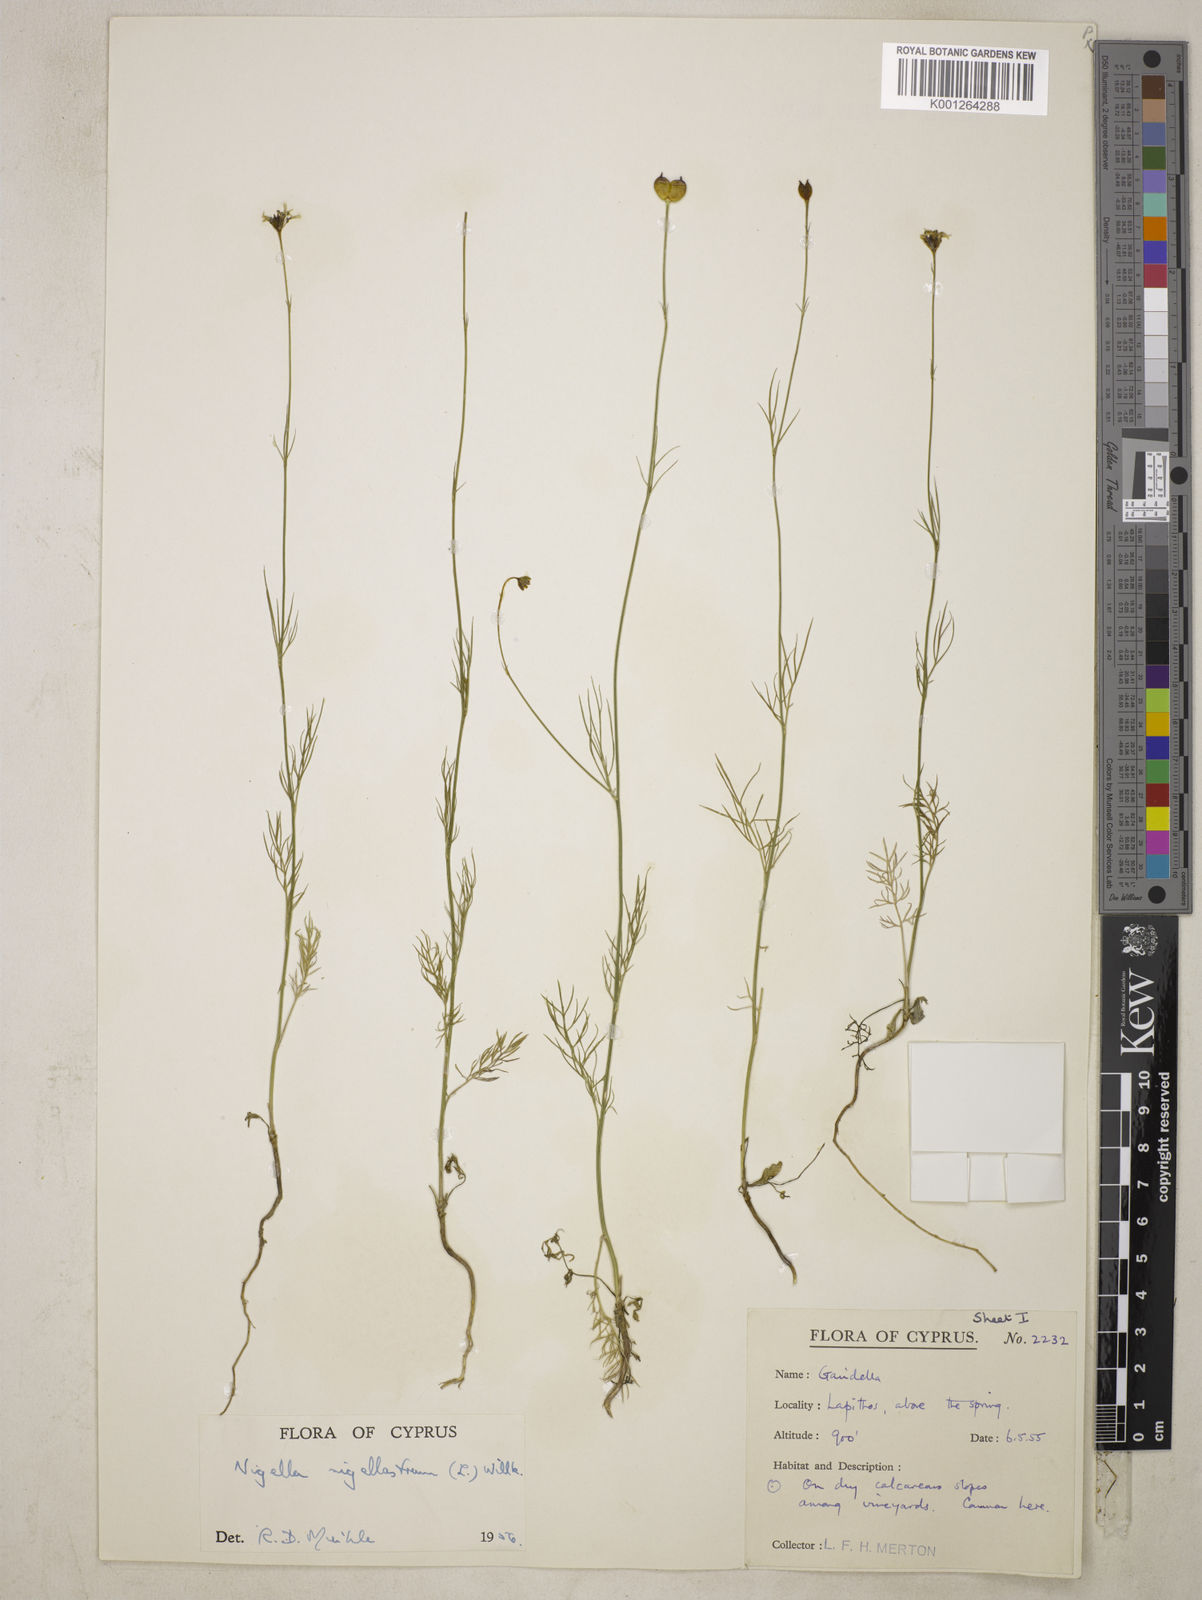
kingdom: Plantae
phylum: Tracheophyta
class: Magnoliopsida
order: Ranunculales
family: Ranunculaceae
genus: Garidella
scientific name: Garidella nigellastrum
